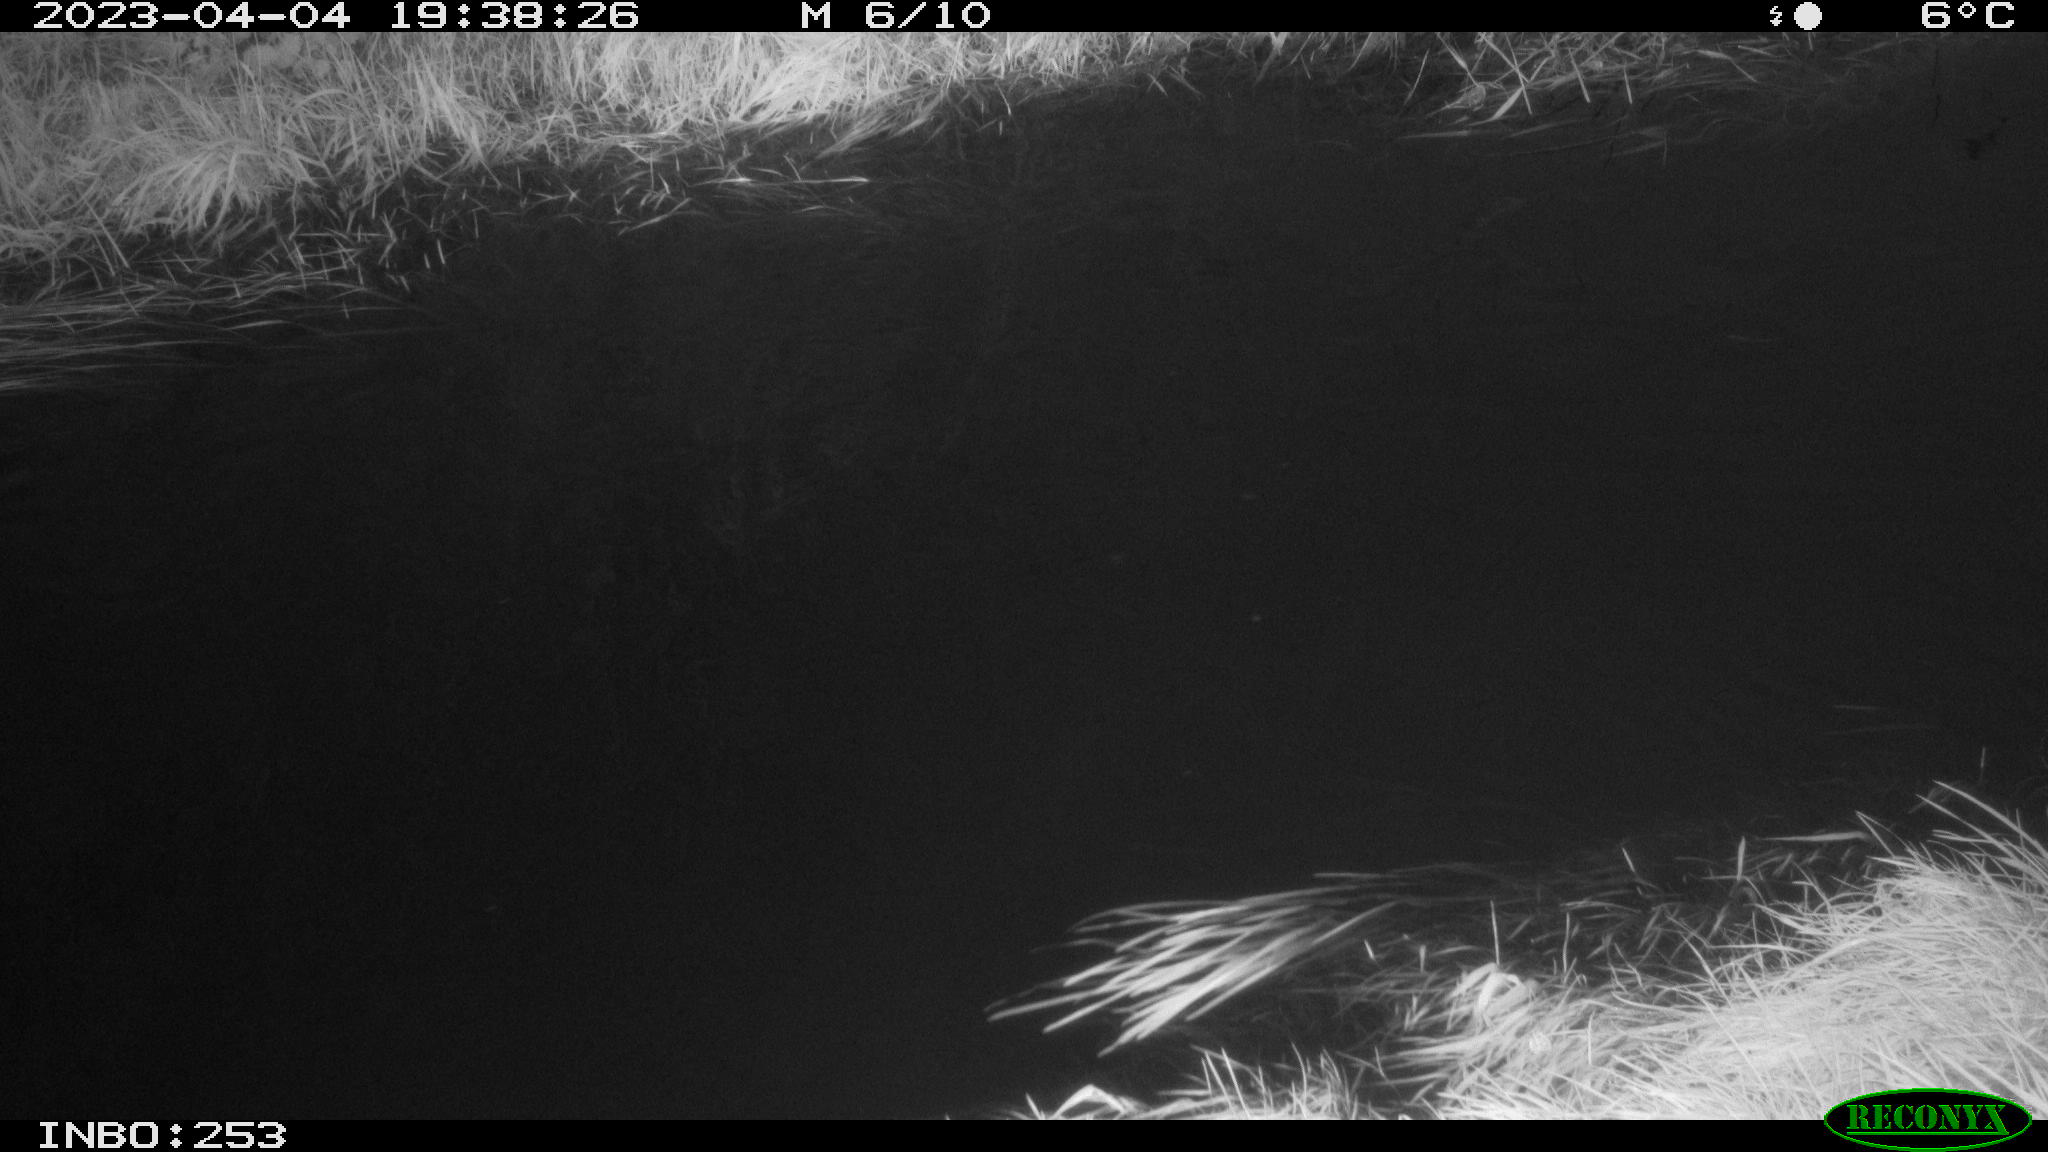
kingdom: Animalia
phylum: Chordata
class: Aves
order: Anseriformes
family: Anatidae
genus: Anas
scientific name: Anas
